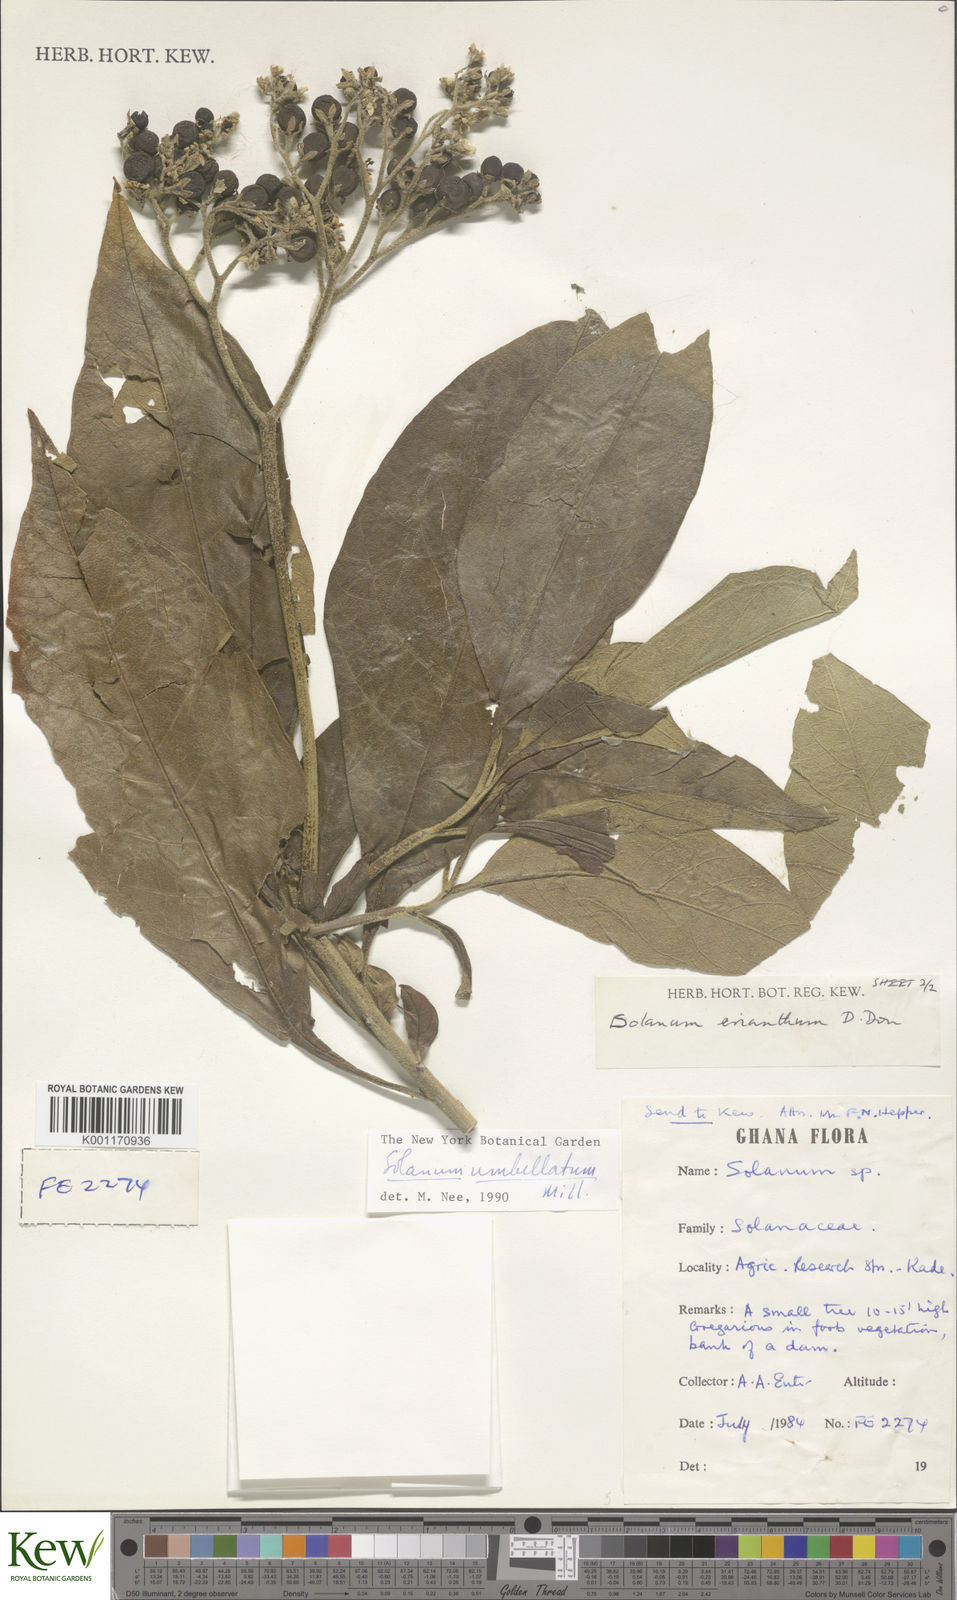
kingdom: Plantae
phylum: Tracheophyta
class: Magnoliopsida
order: Solanales
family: Solanaceae
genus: Solanum
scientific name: Solanum umbellatum
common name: Nightshade
